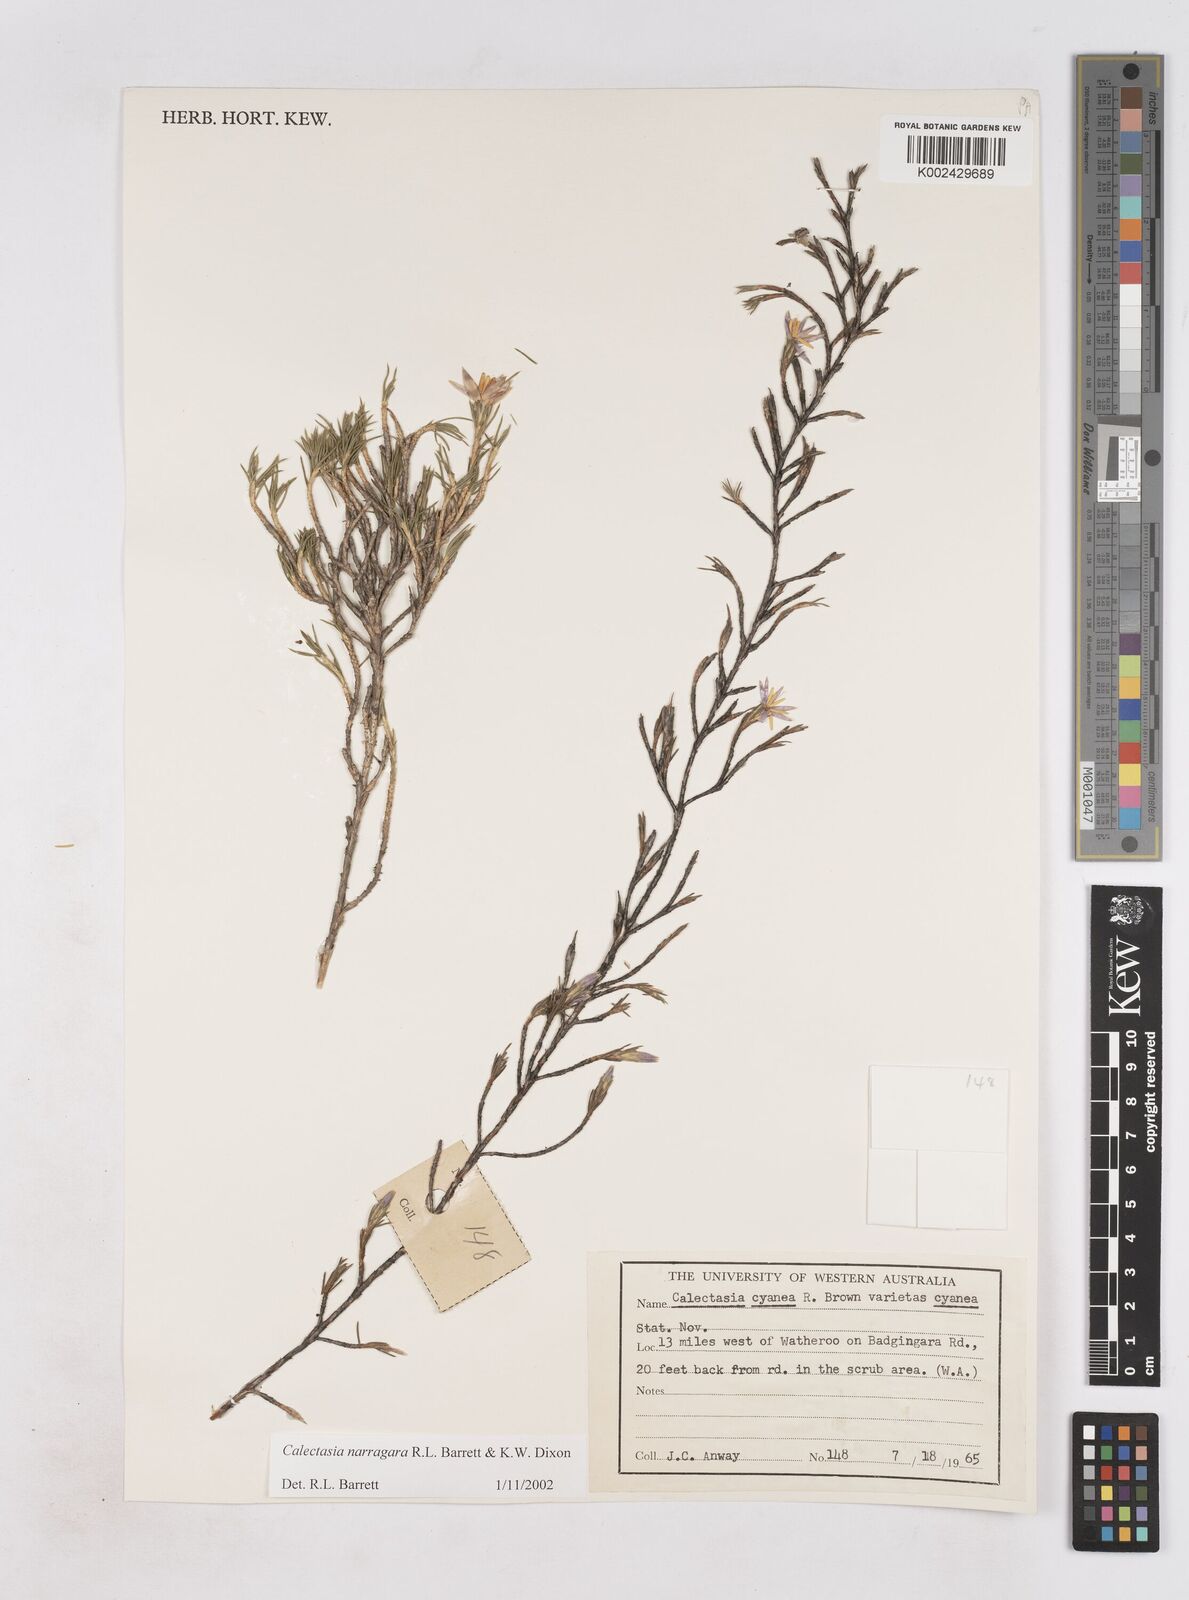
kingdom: Plantae
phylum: Tracheophyta
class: Liliopsida
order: Arecales
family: Dasypogonaceae
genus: Calectasia
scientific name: Calectasia narragara
